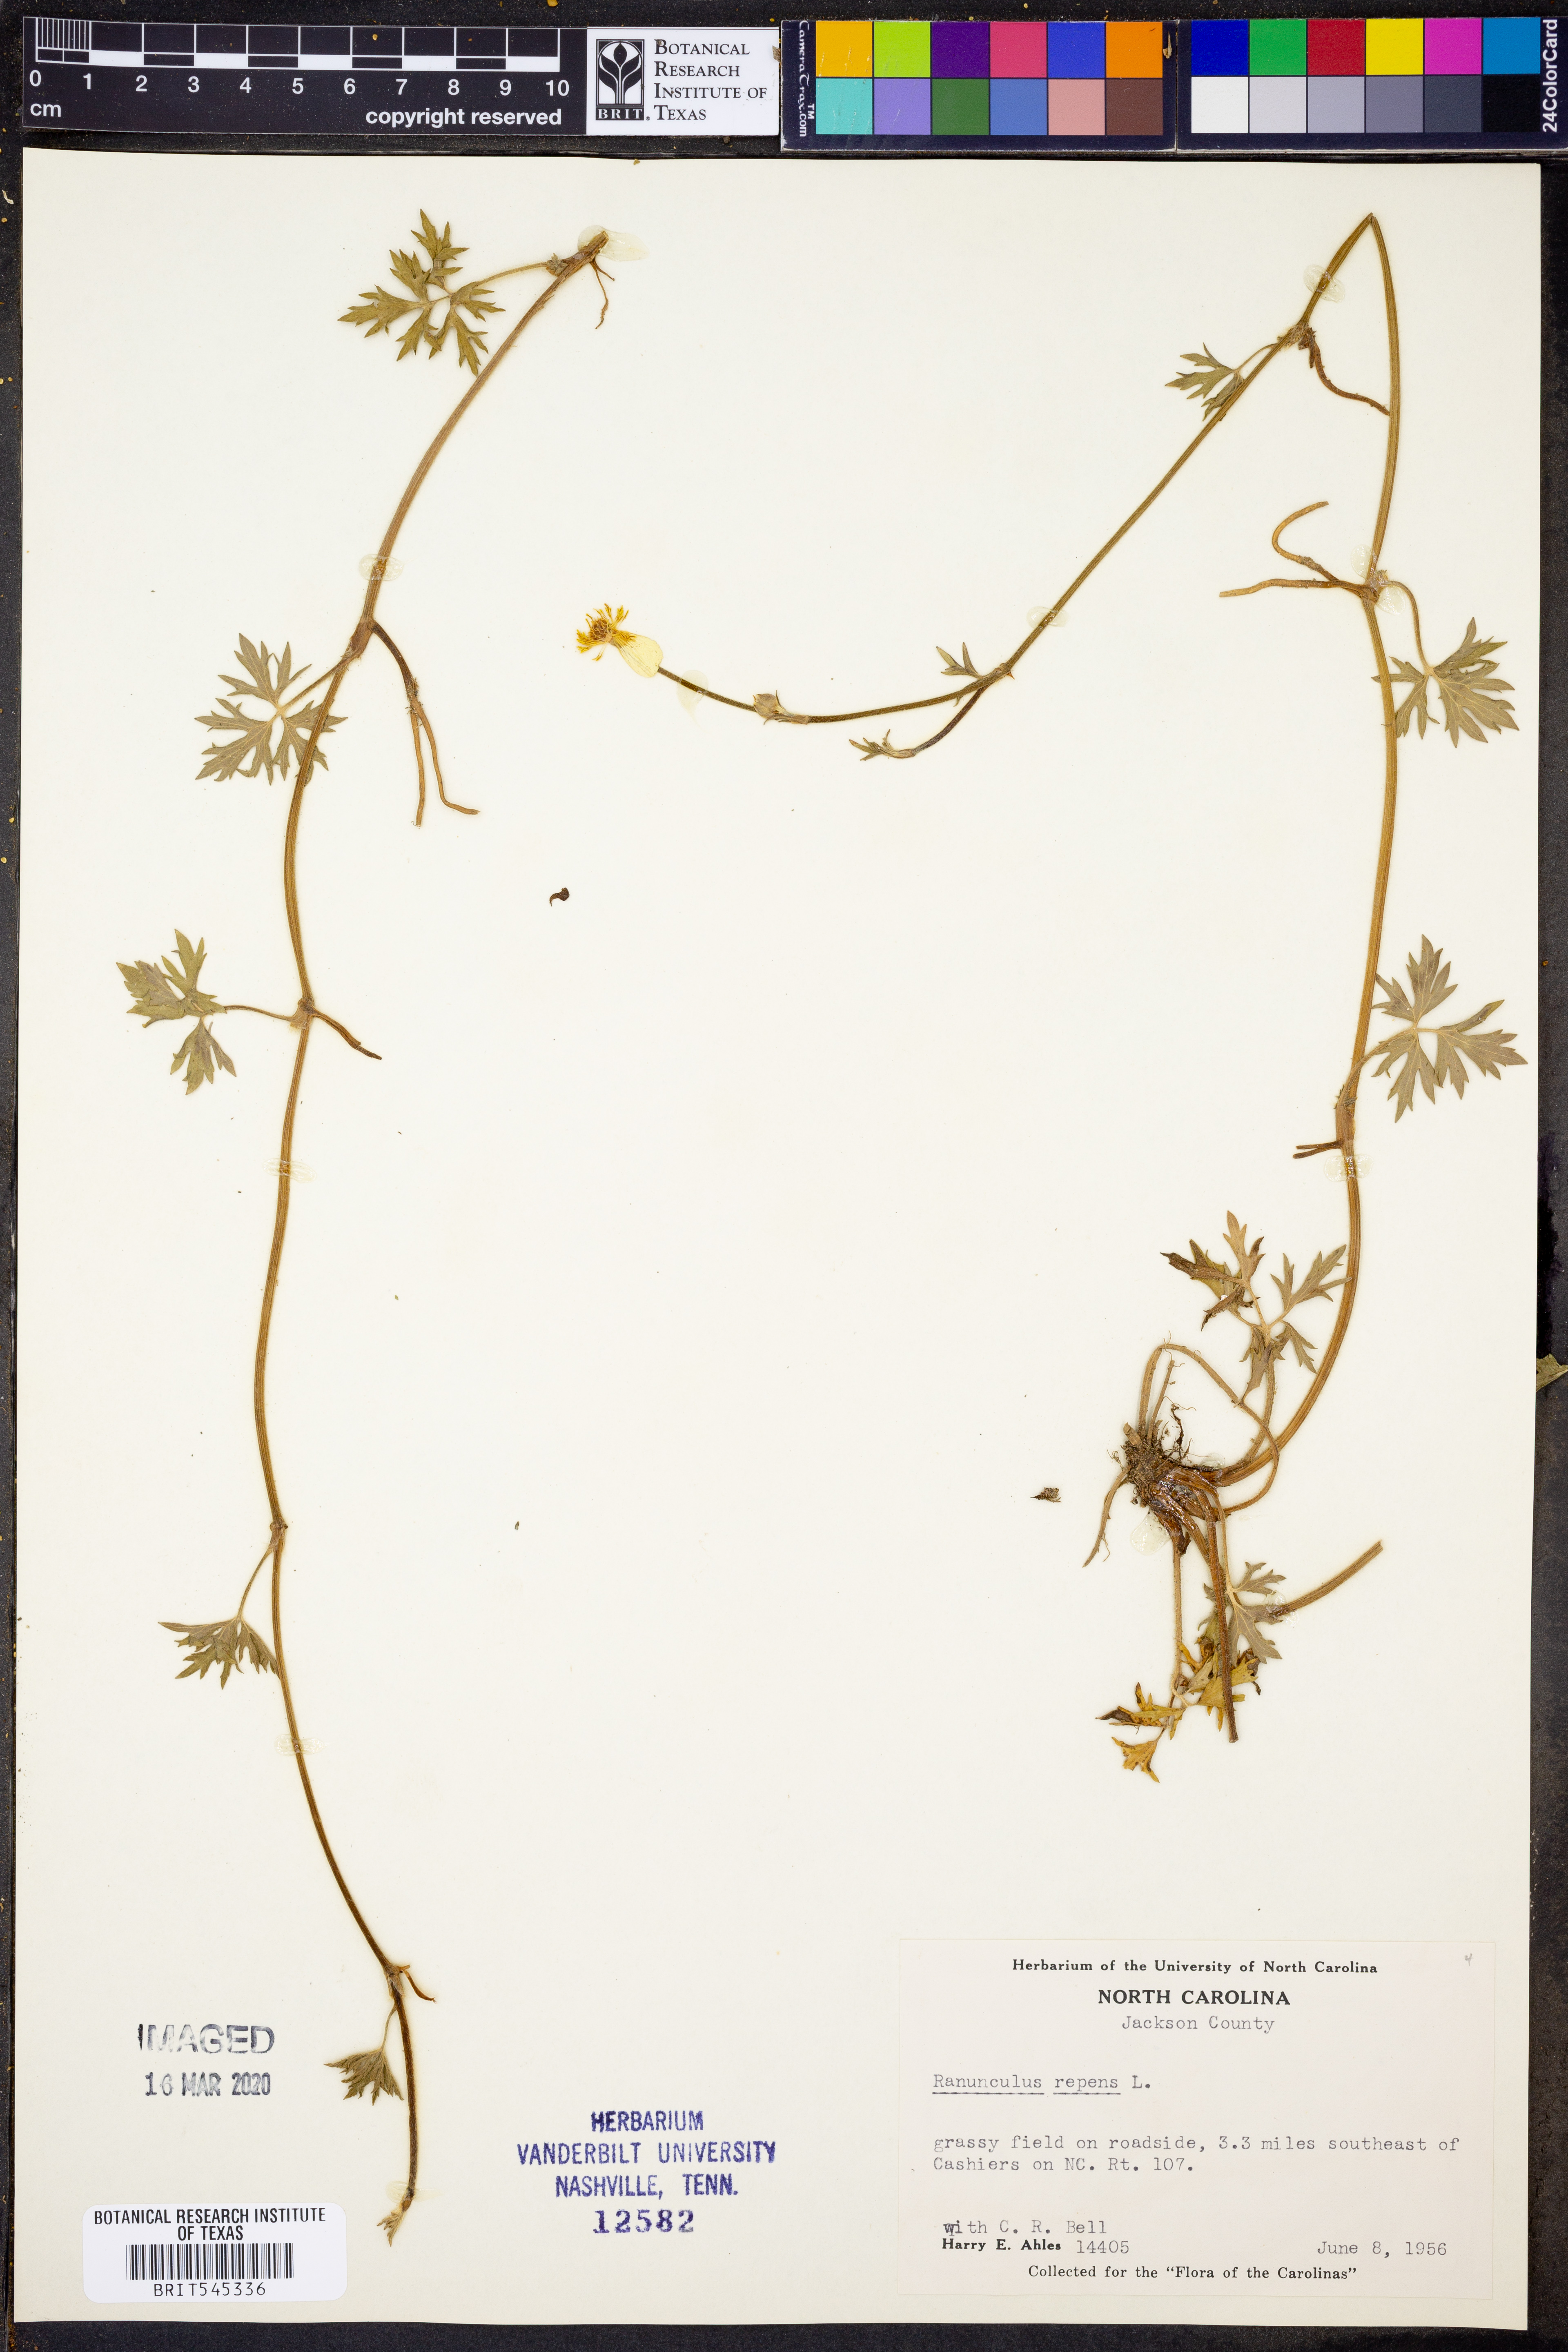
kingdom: Plantae
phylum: Tracheophyta
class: Magnoliopsida
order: Ranunculales
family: Ranunculaceae
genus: Ranunculus
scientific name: Ranunculus repens
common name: Creeping buttercup
